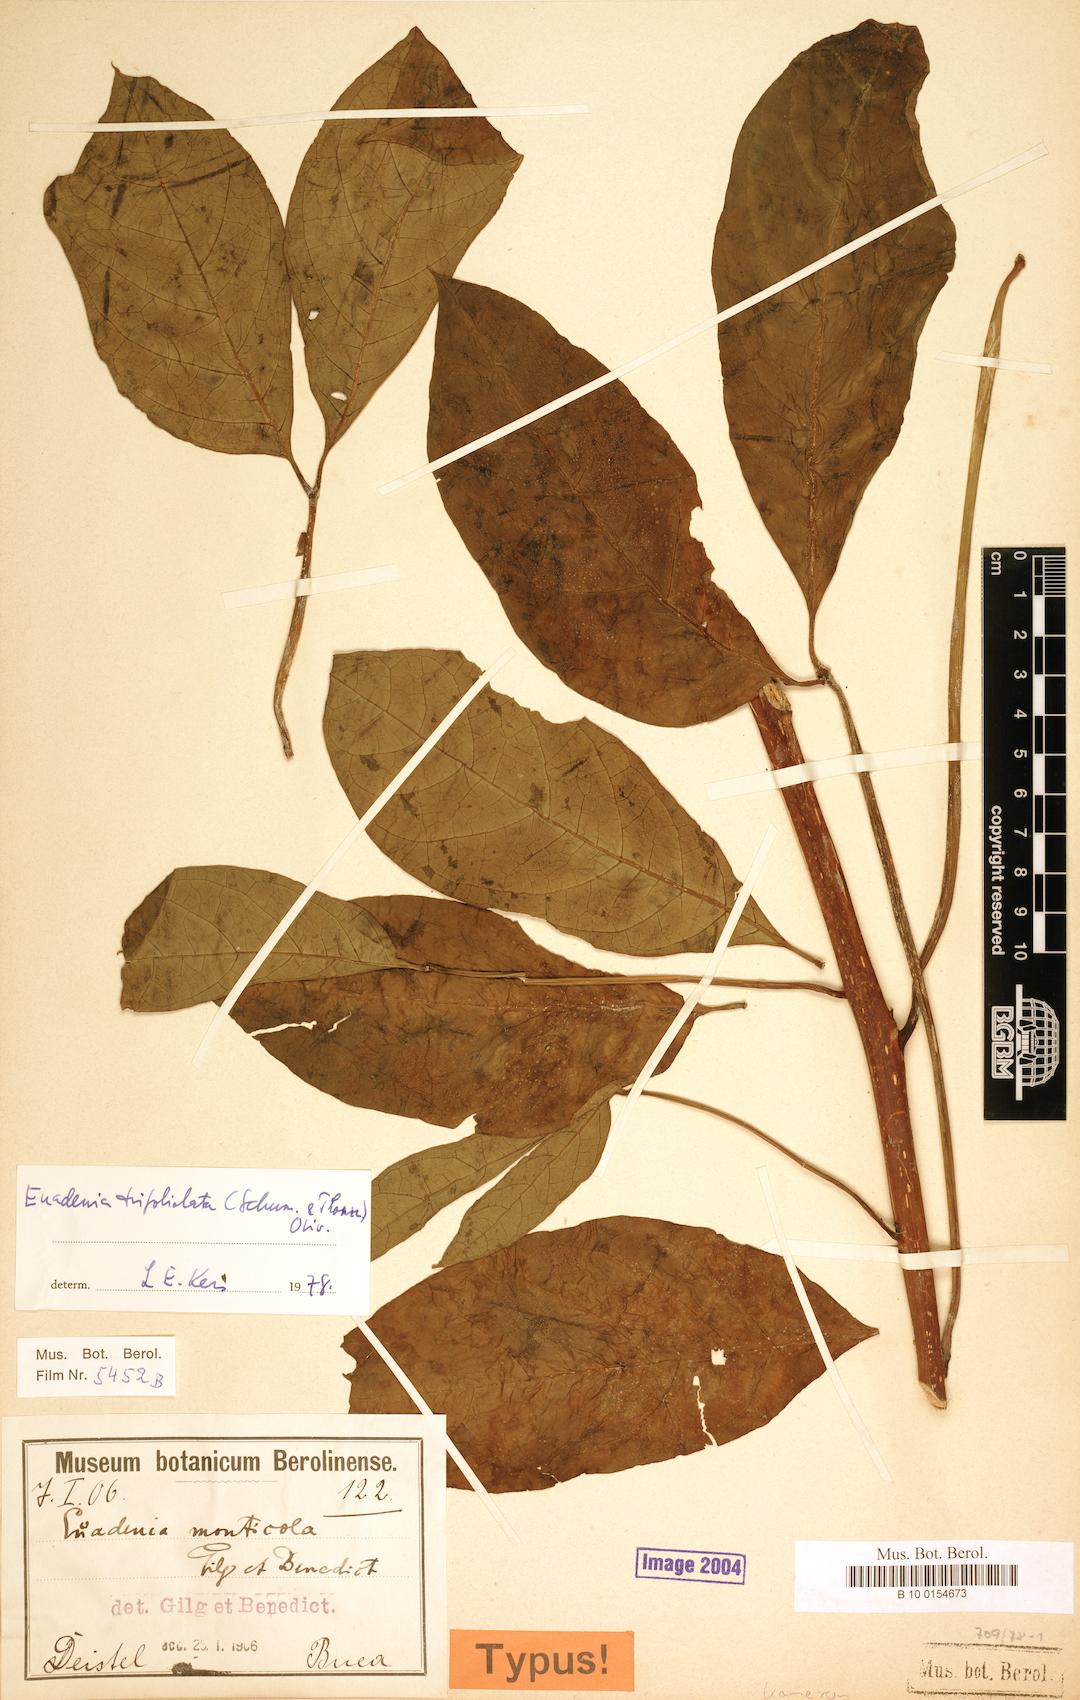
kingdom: Plantae
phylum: Tracheophyta
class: Magnoliopsida
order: Brassicales
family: Capparaceae
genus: Euadenia
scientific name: Euadenia trifoliolata
